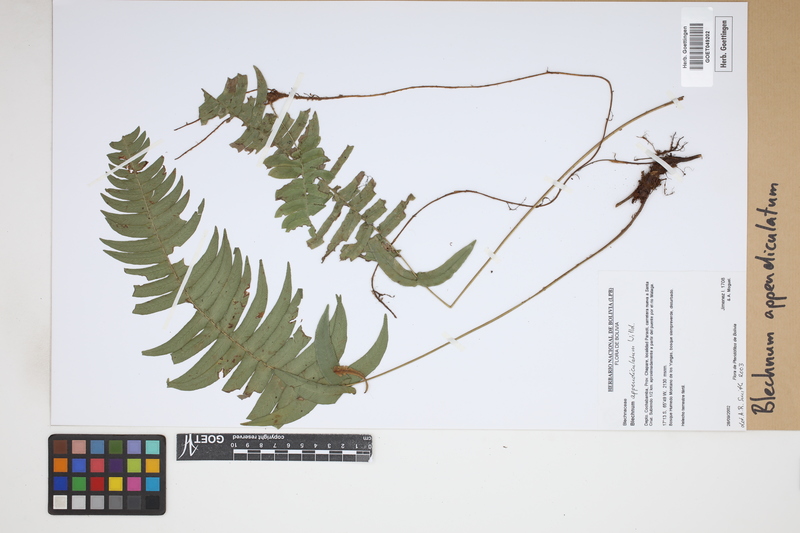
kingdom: Plantae
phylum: Tracheophyta
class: Polypodiopsida
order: Polypodiales
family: Blechnaceae
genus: Blechnum
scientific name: Blechnum appendiculatum
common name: Palm fern
